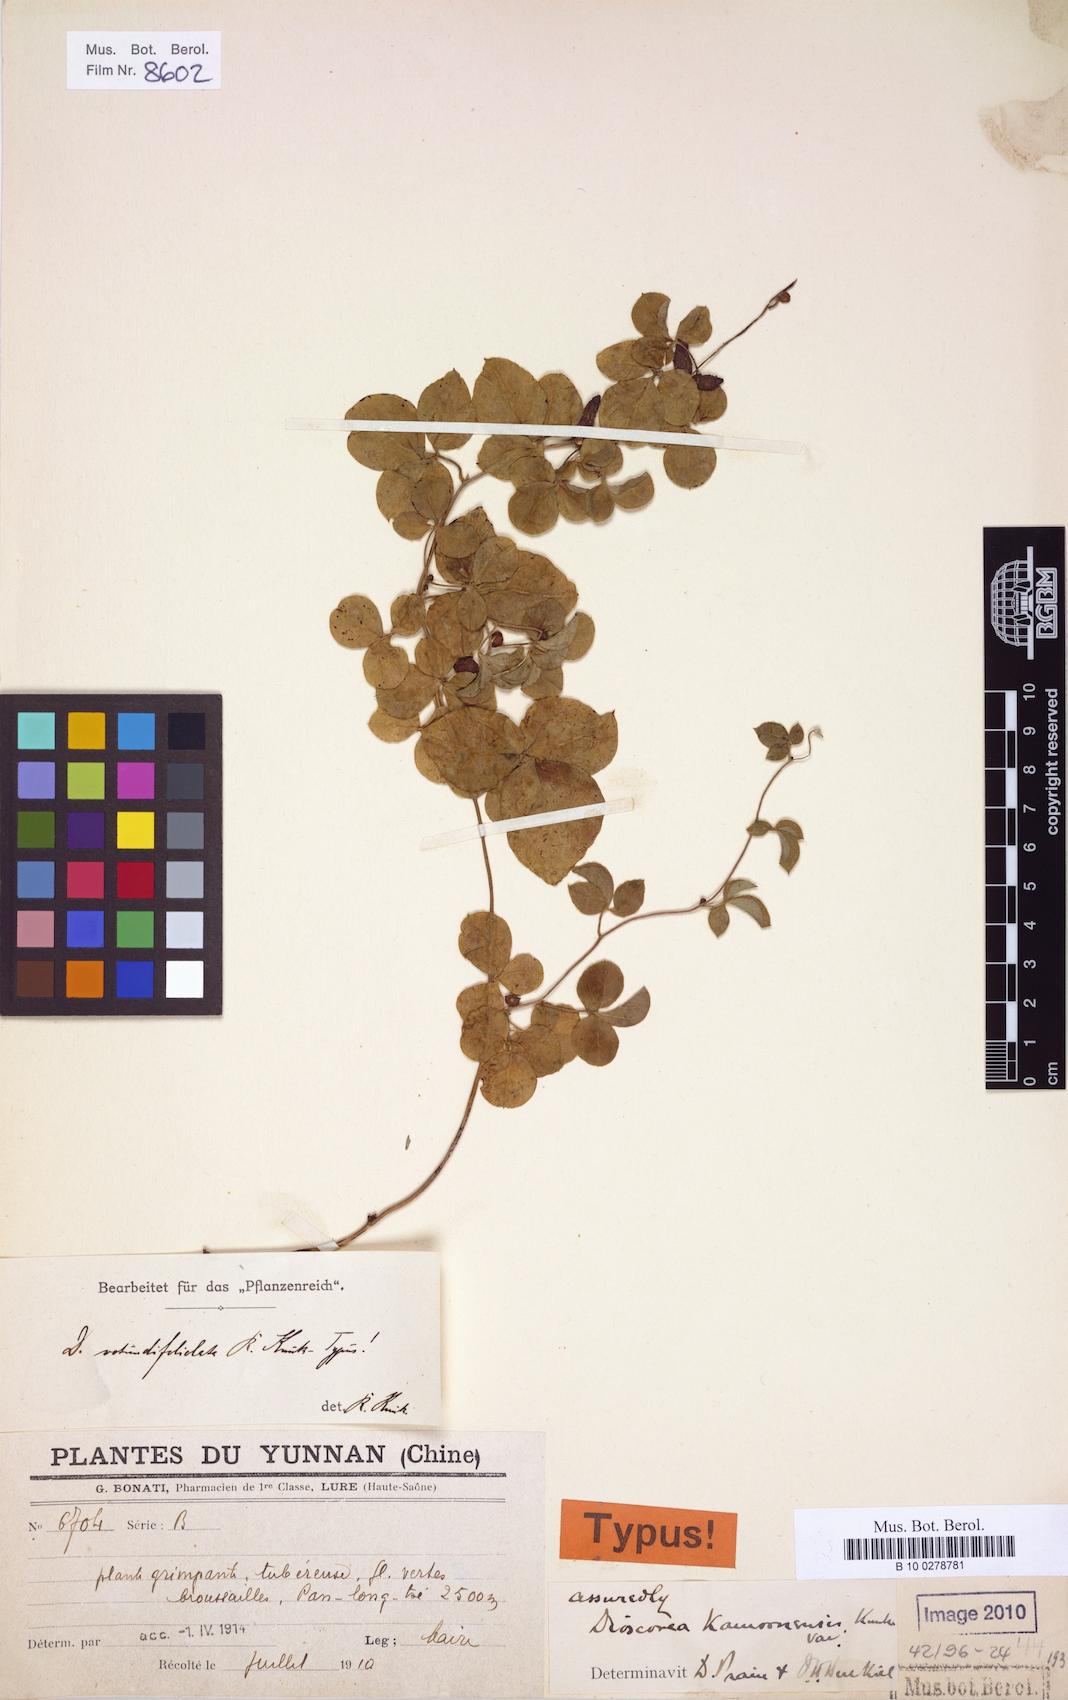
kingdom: Plantae
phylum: Tracheophyta
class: Liliopsida
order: Dioscoreales
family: Dioscoreaceae
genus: Dioscorea
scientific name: Dioscorea delavayi
